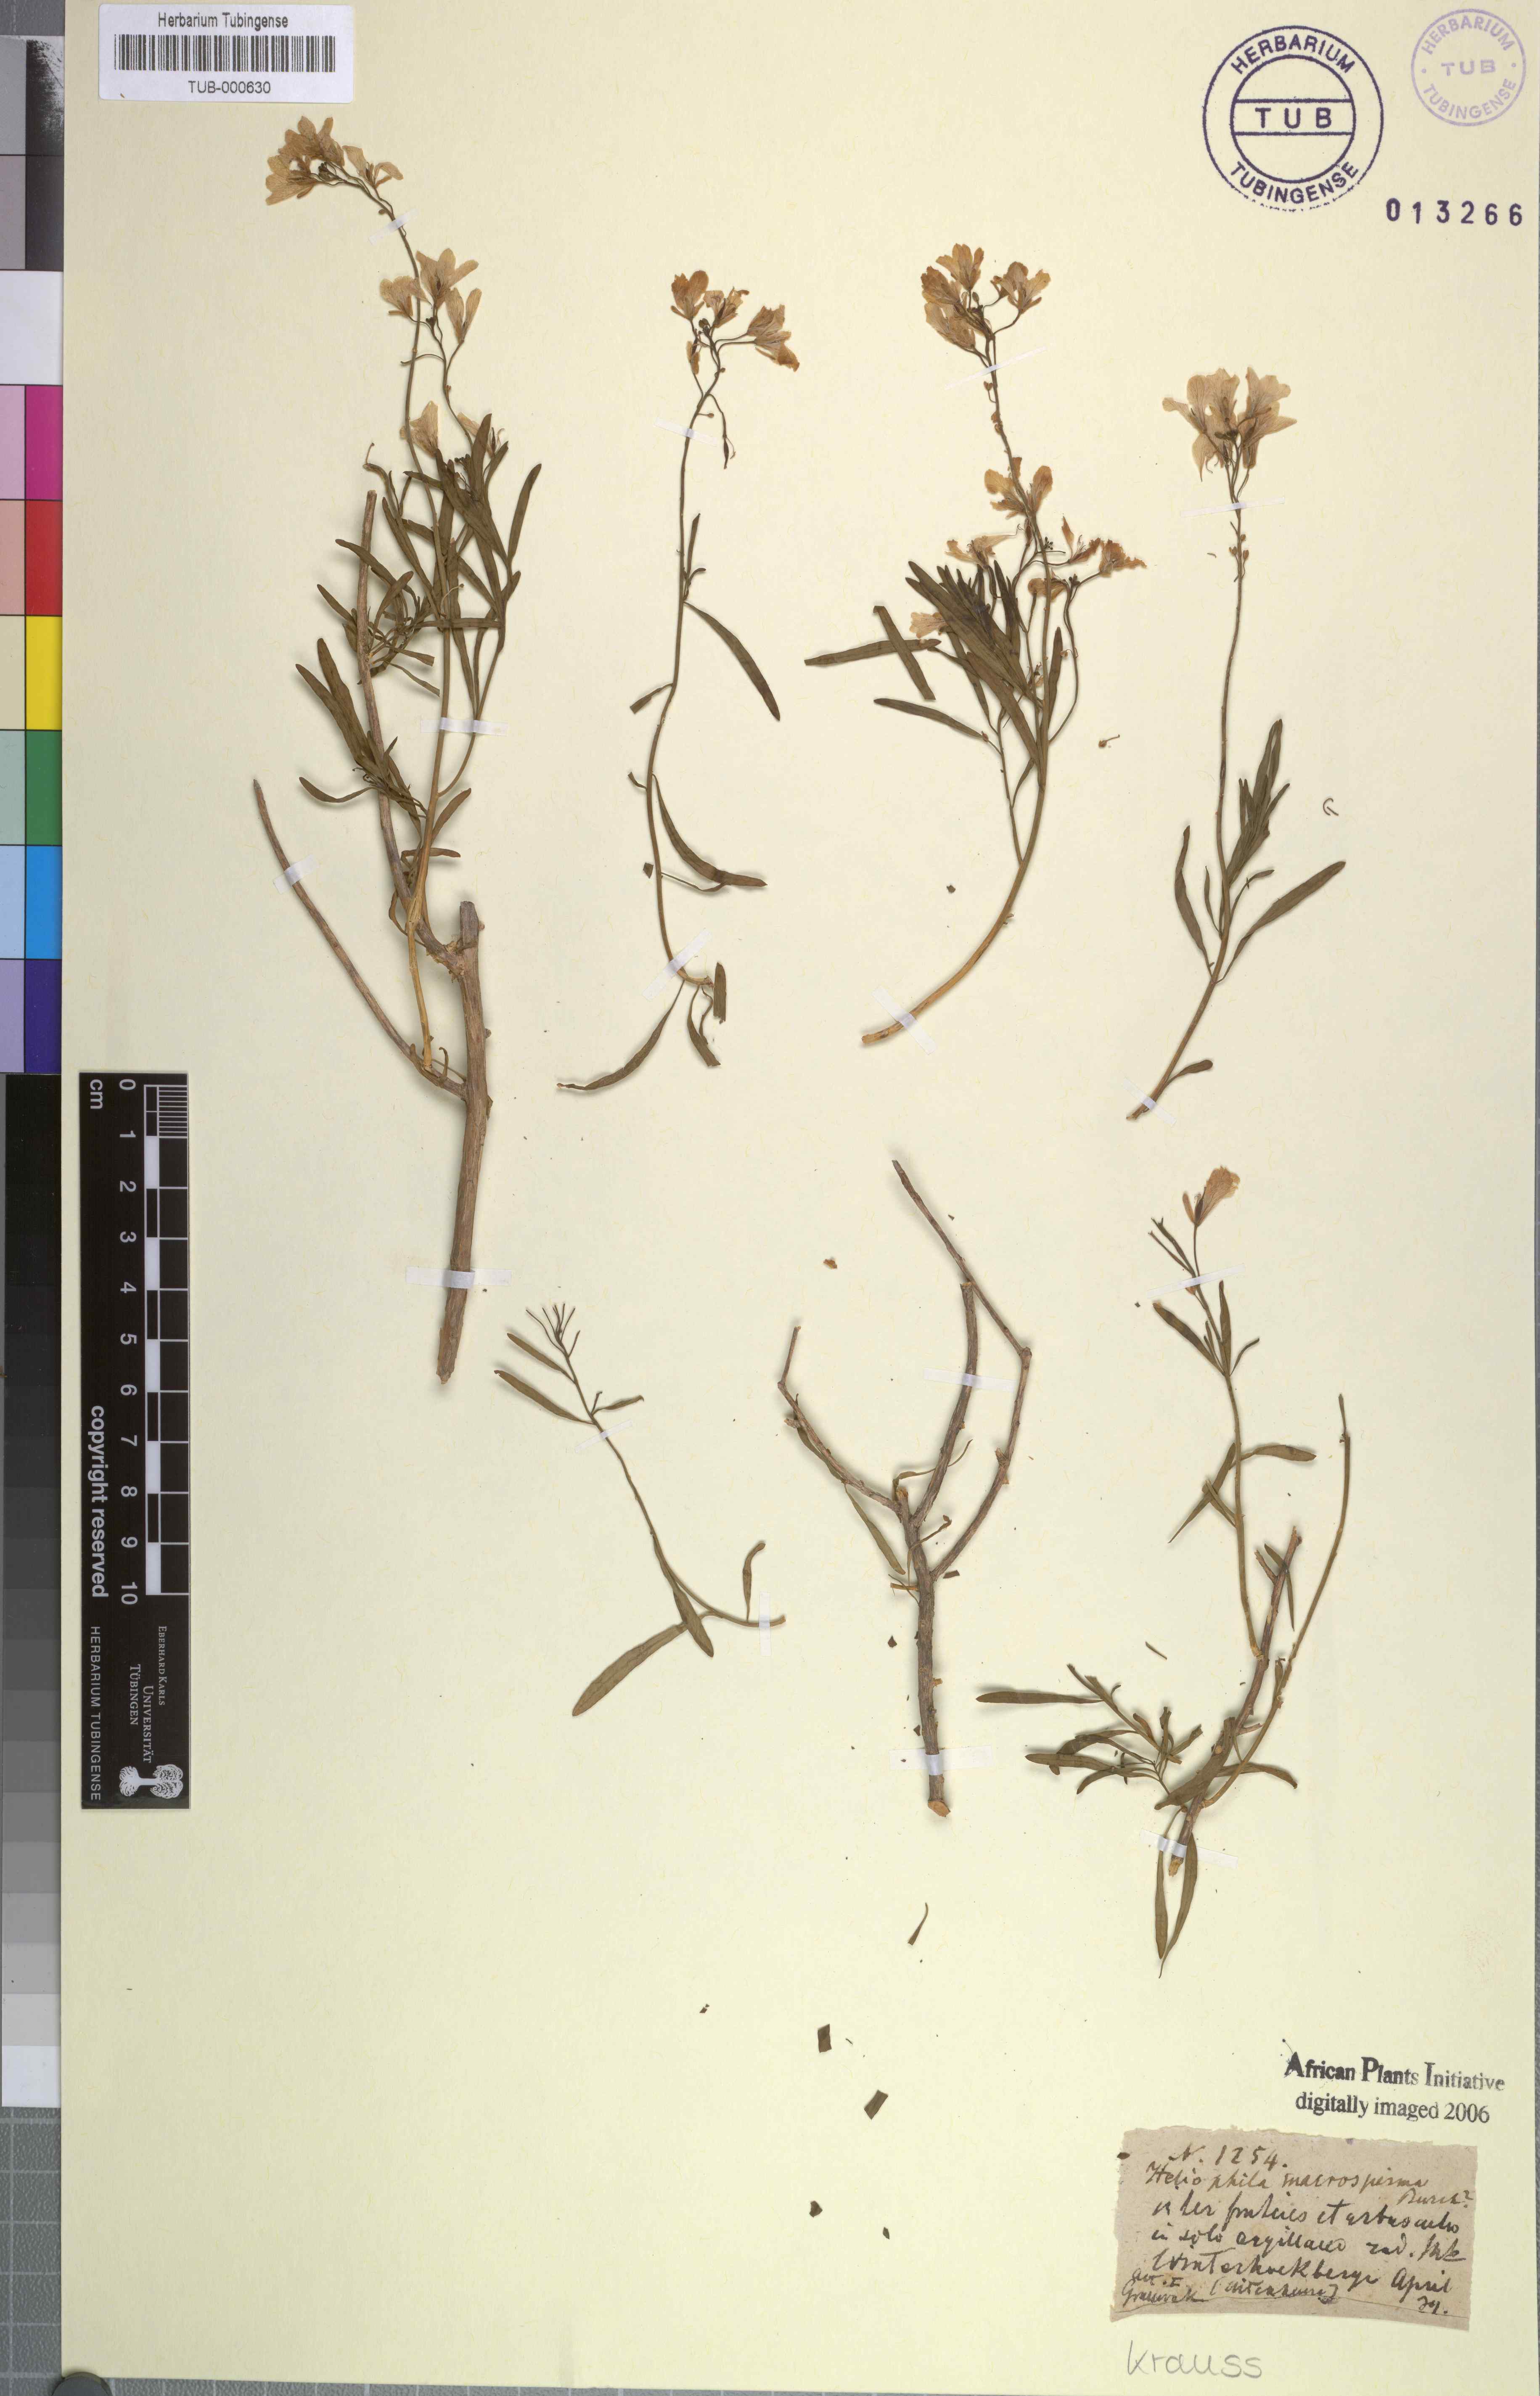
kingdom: Plantae
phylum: Tracheophyta
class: Magnoliopsida
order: Brassicales
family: Brassicaceae
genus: Heliophila
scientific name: Heliophila macrosperma
